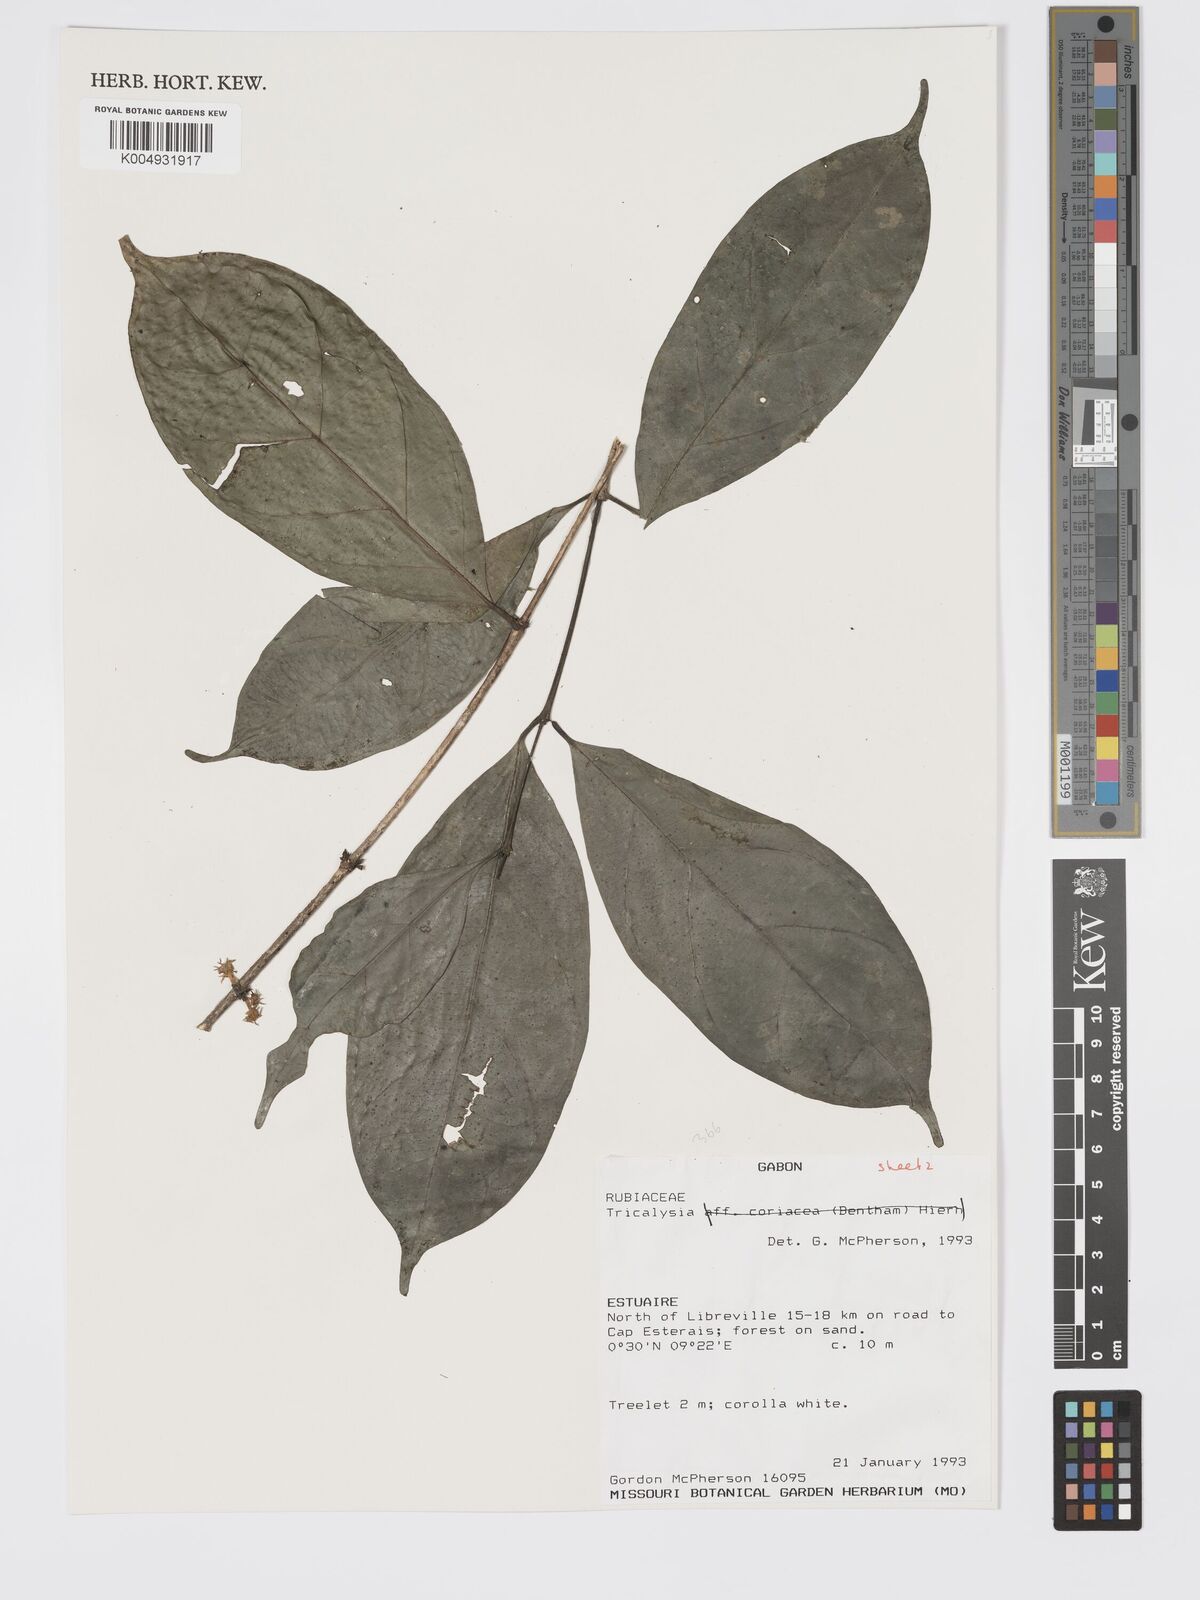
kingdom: Plantae
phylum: Tracheophyta
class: Magnoliopsida
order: Gentianales
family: Rubiaceae
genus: Tricalysia
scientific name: Tricalysia
